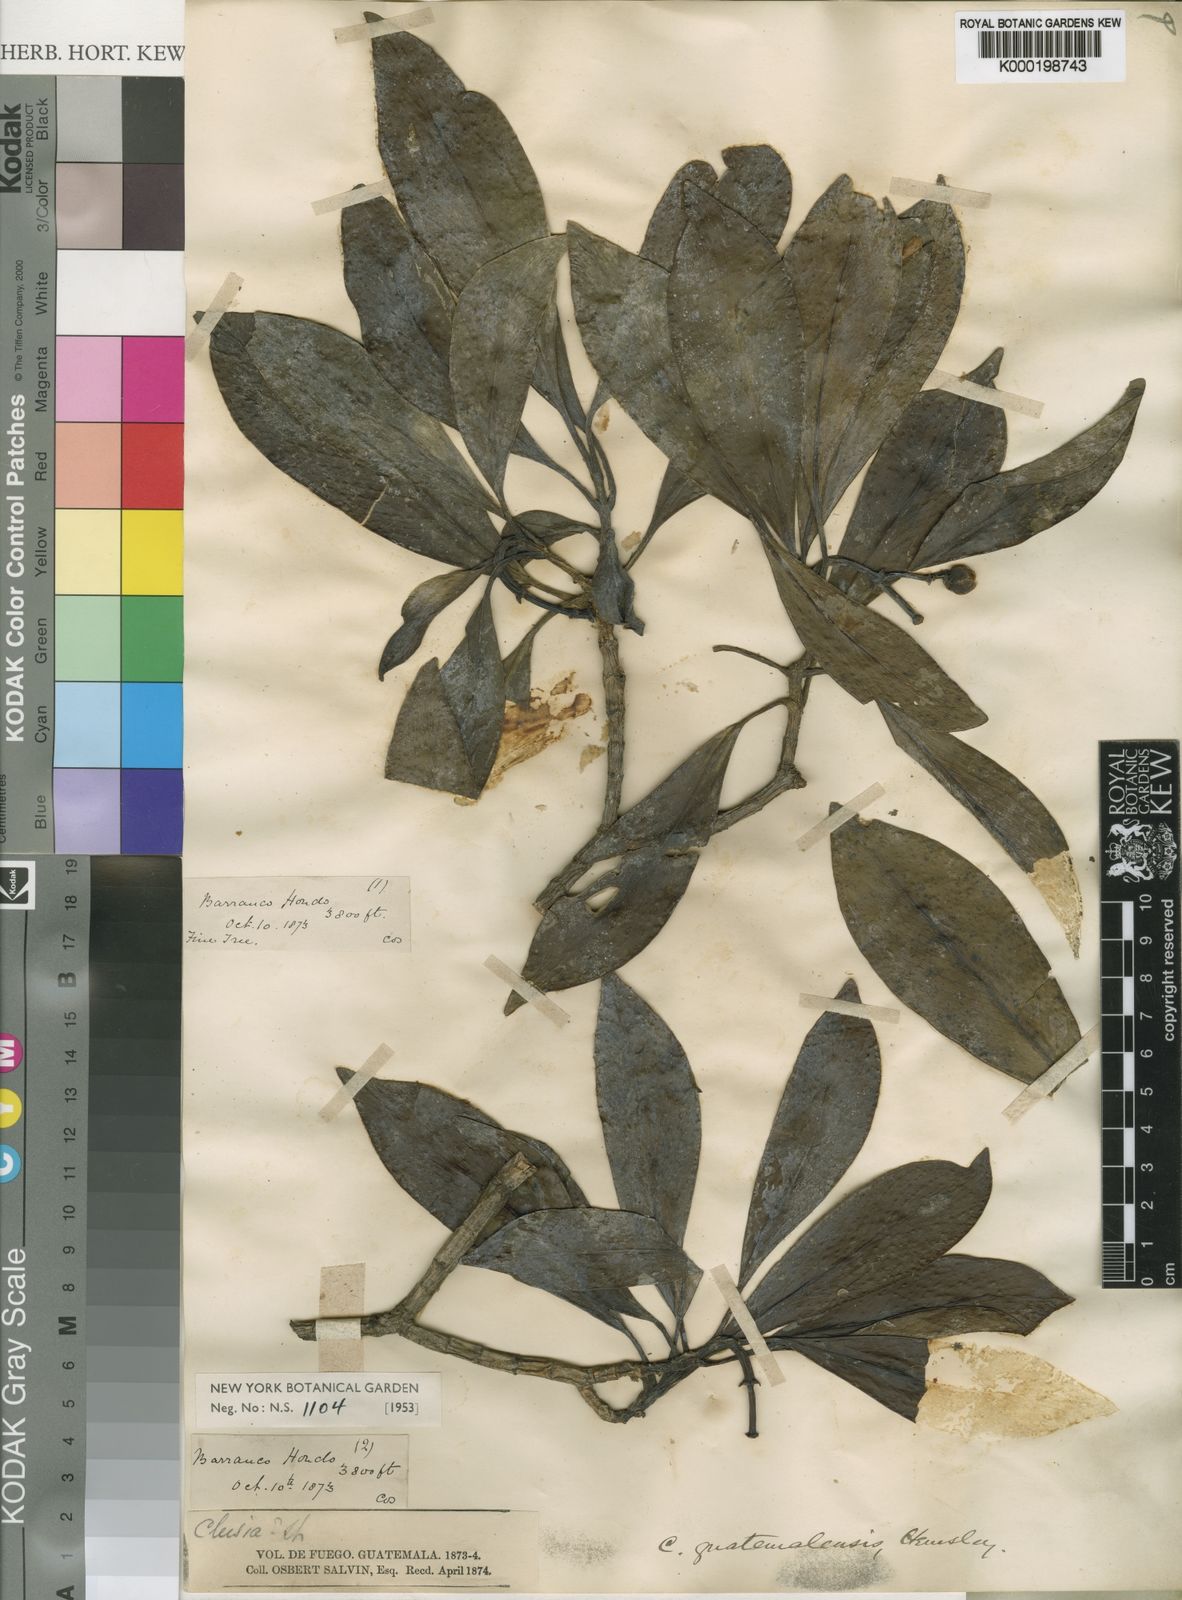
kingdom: Plantae
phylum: Tracheophyta
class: Magnoliopsida
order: Malpighiales
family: Clusiaceae
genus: Clusia
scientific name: Clusia guatemalensis
